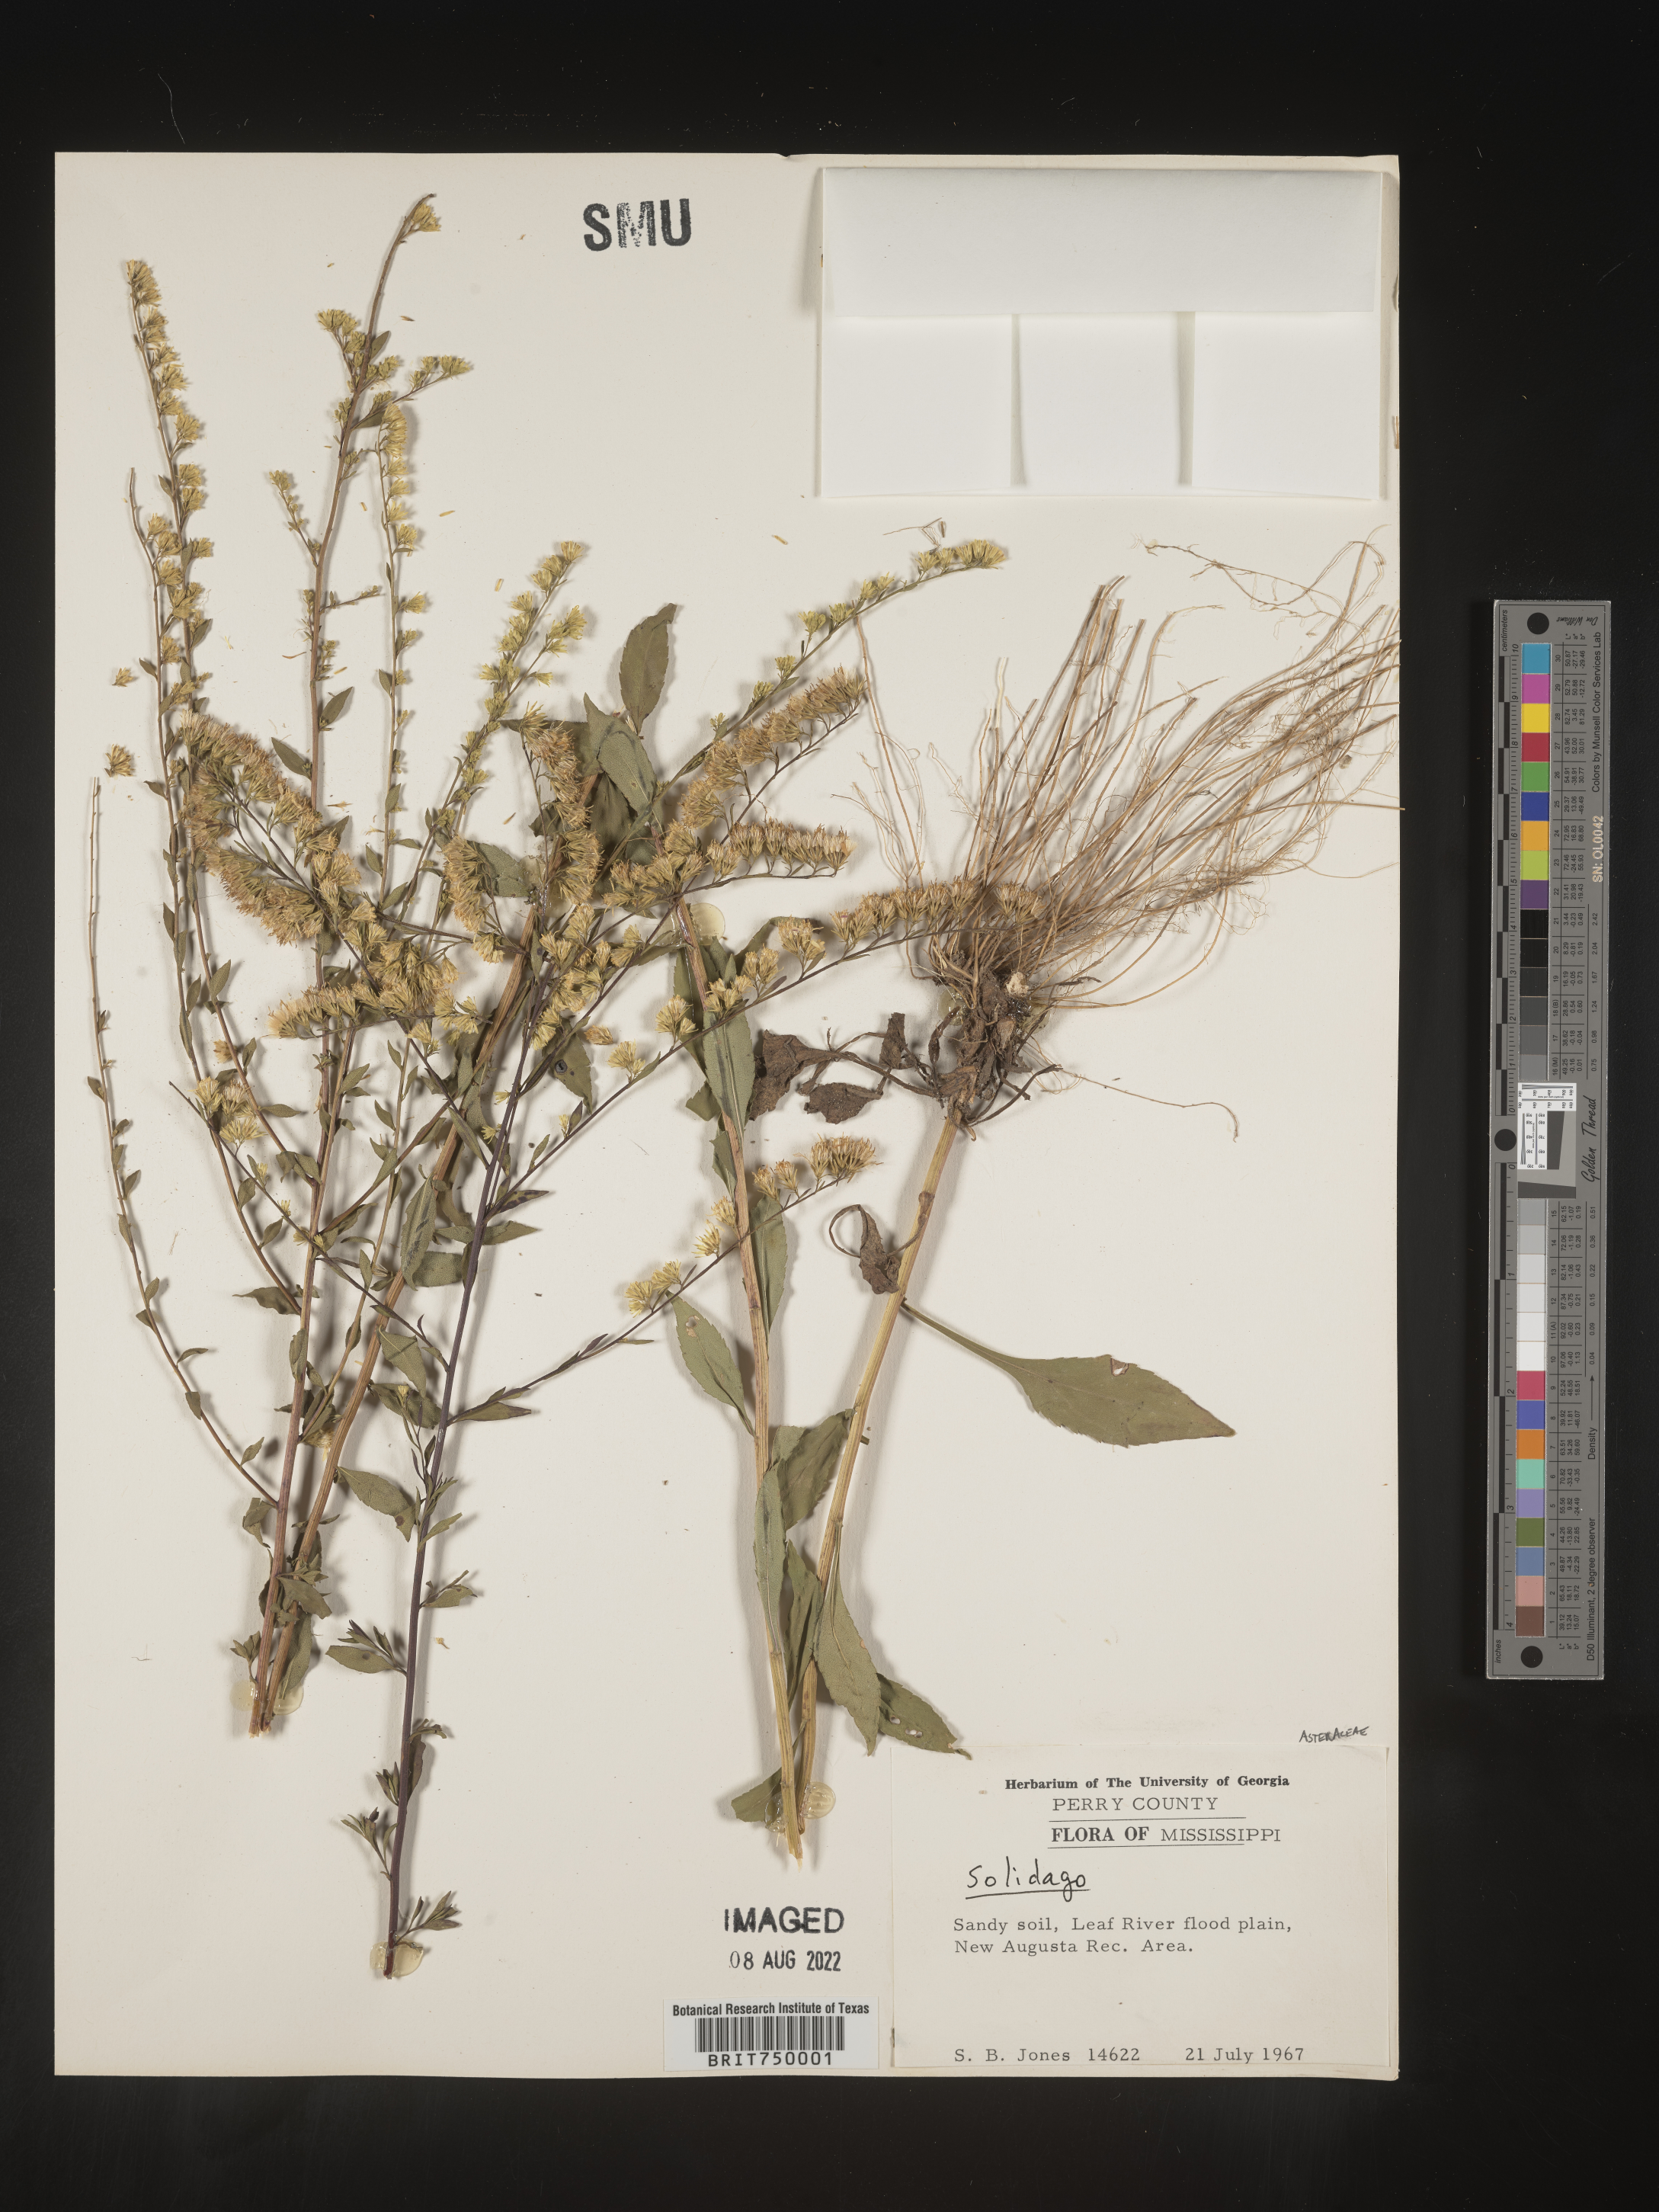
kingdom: Plantae
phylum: Tracheophyta
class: Magnoliopsida
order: Asterales
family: Asteraceae
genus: Solidago
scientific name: Solidago
